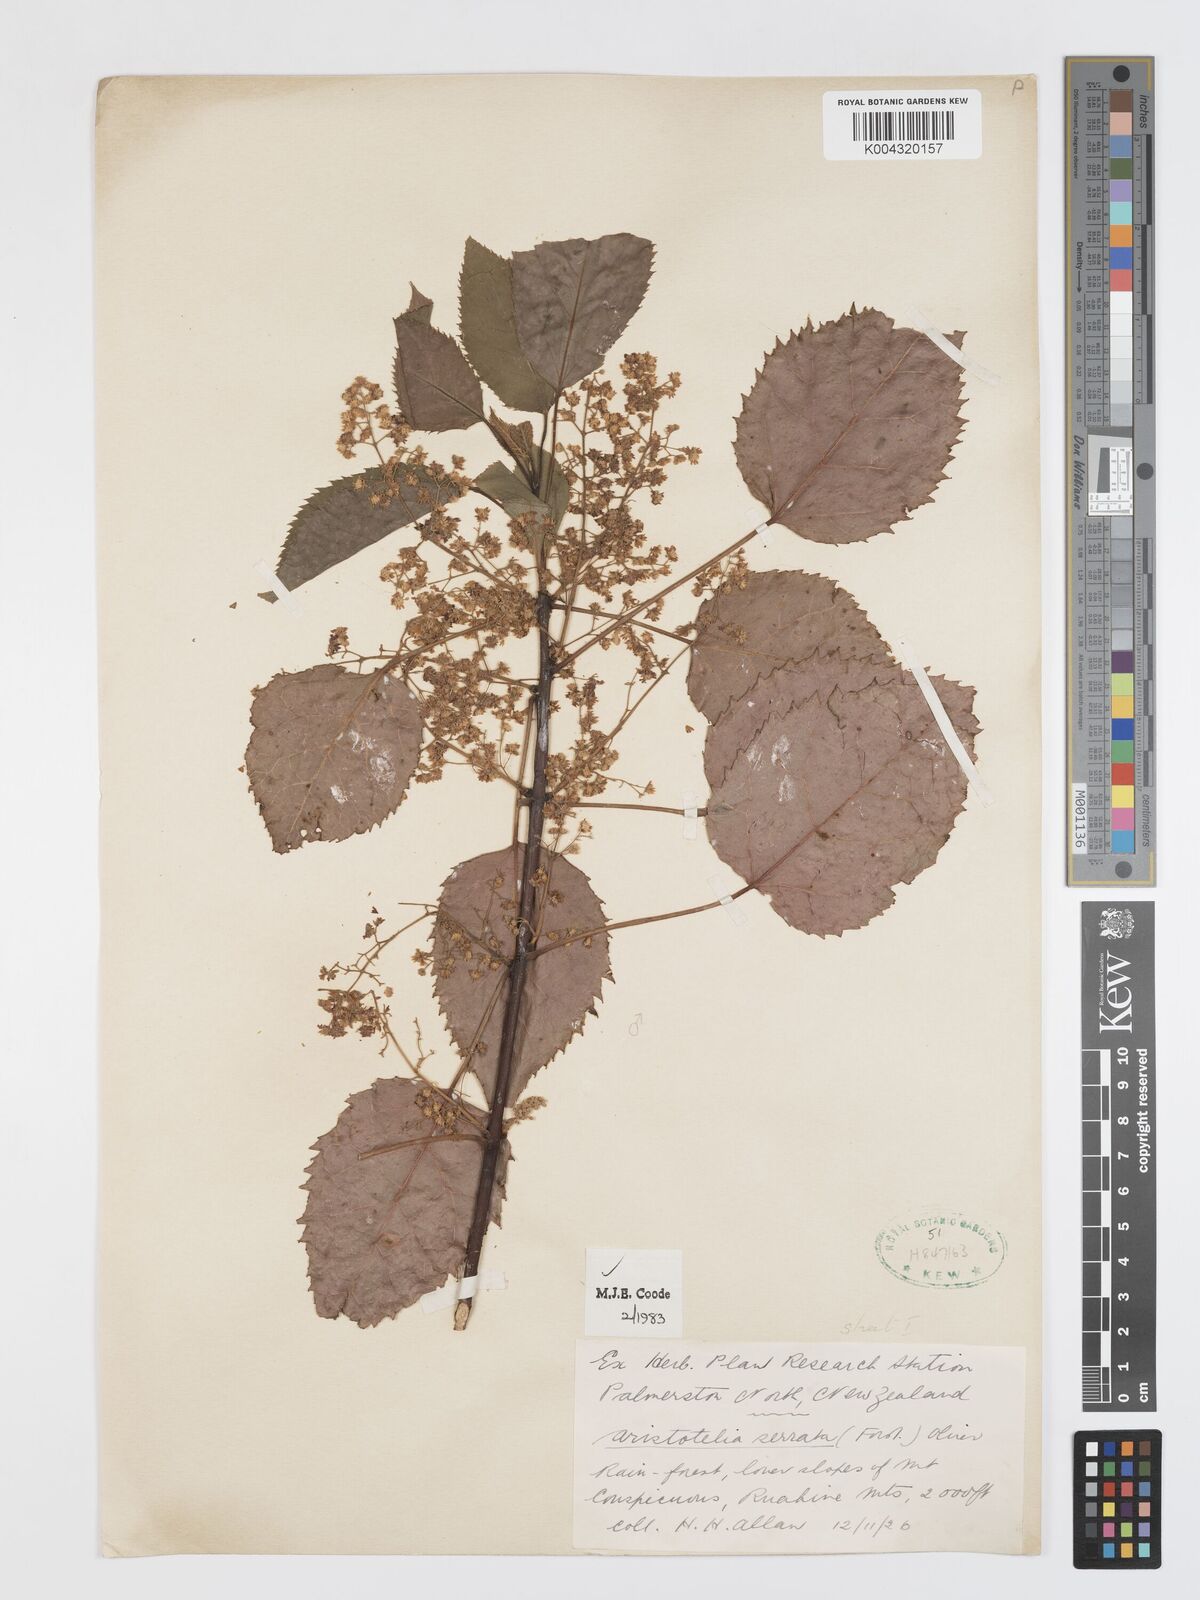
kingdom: Plantae
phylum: Tracheophyta
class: Magnoliopsida
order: Oxalidales
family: Elaeocarpaceae
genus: Aristotelia
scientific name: Aristotelia serrata
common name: New zealand wineberry
